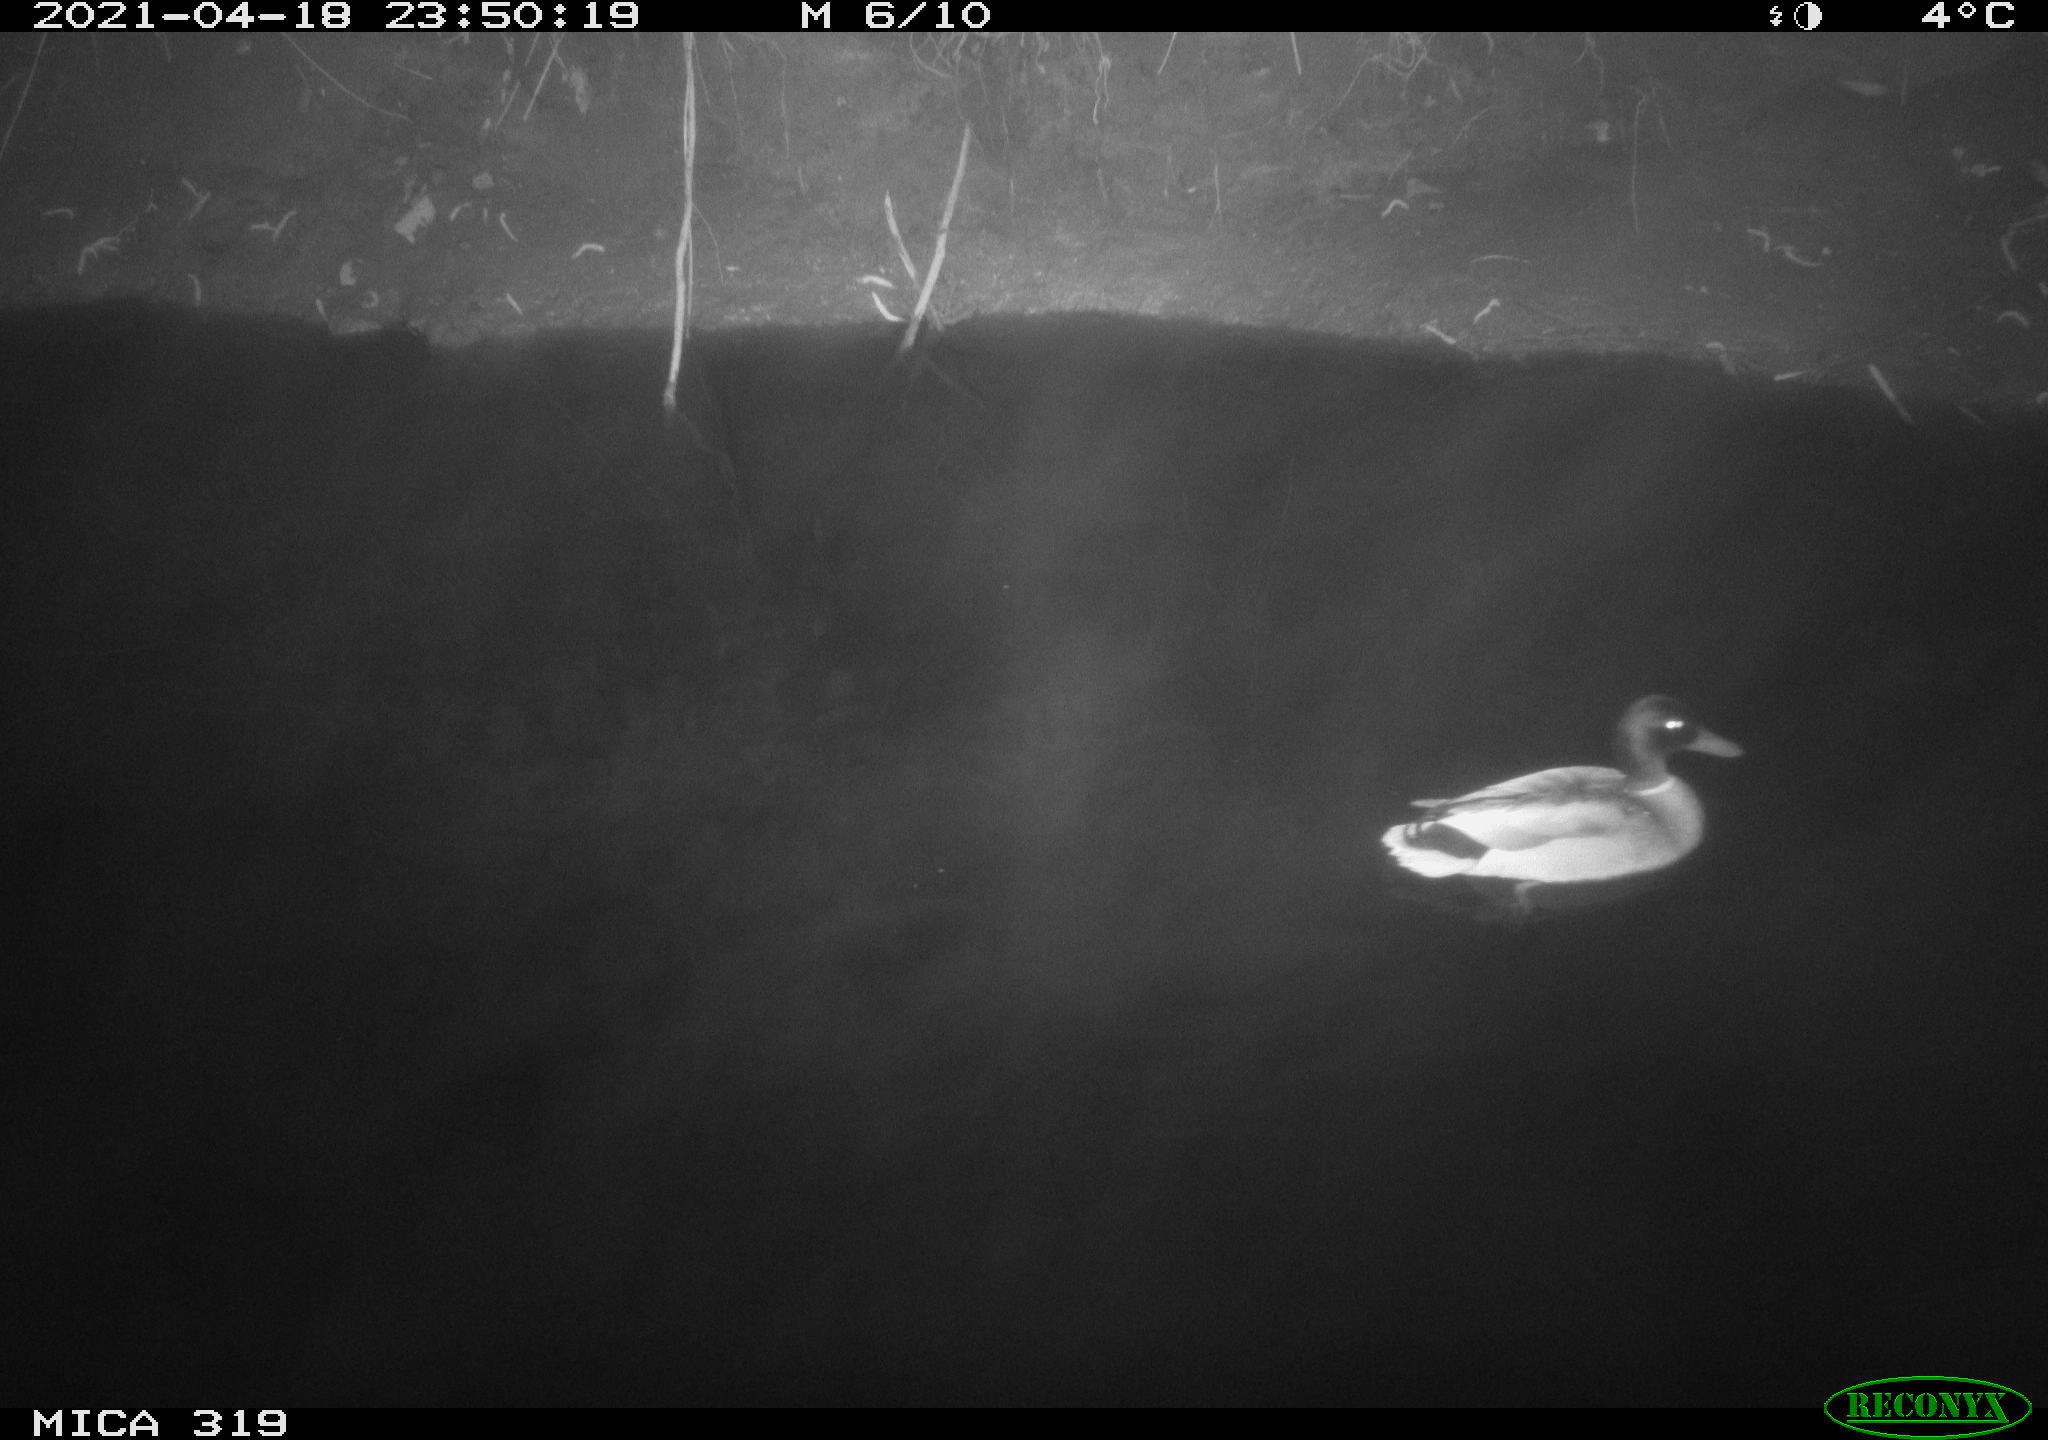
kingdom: Animalia
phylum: Chordata
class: Aves
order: Anseriformes
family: Anatidae
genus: Anas
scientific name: Anas platyrhynchos
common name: Mallard
